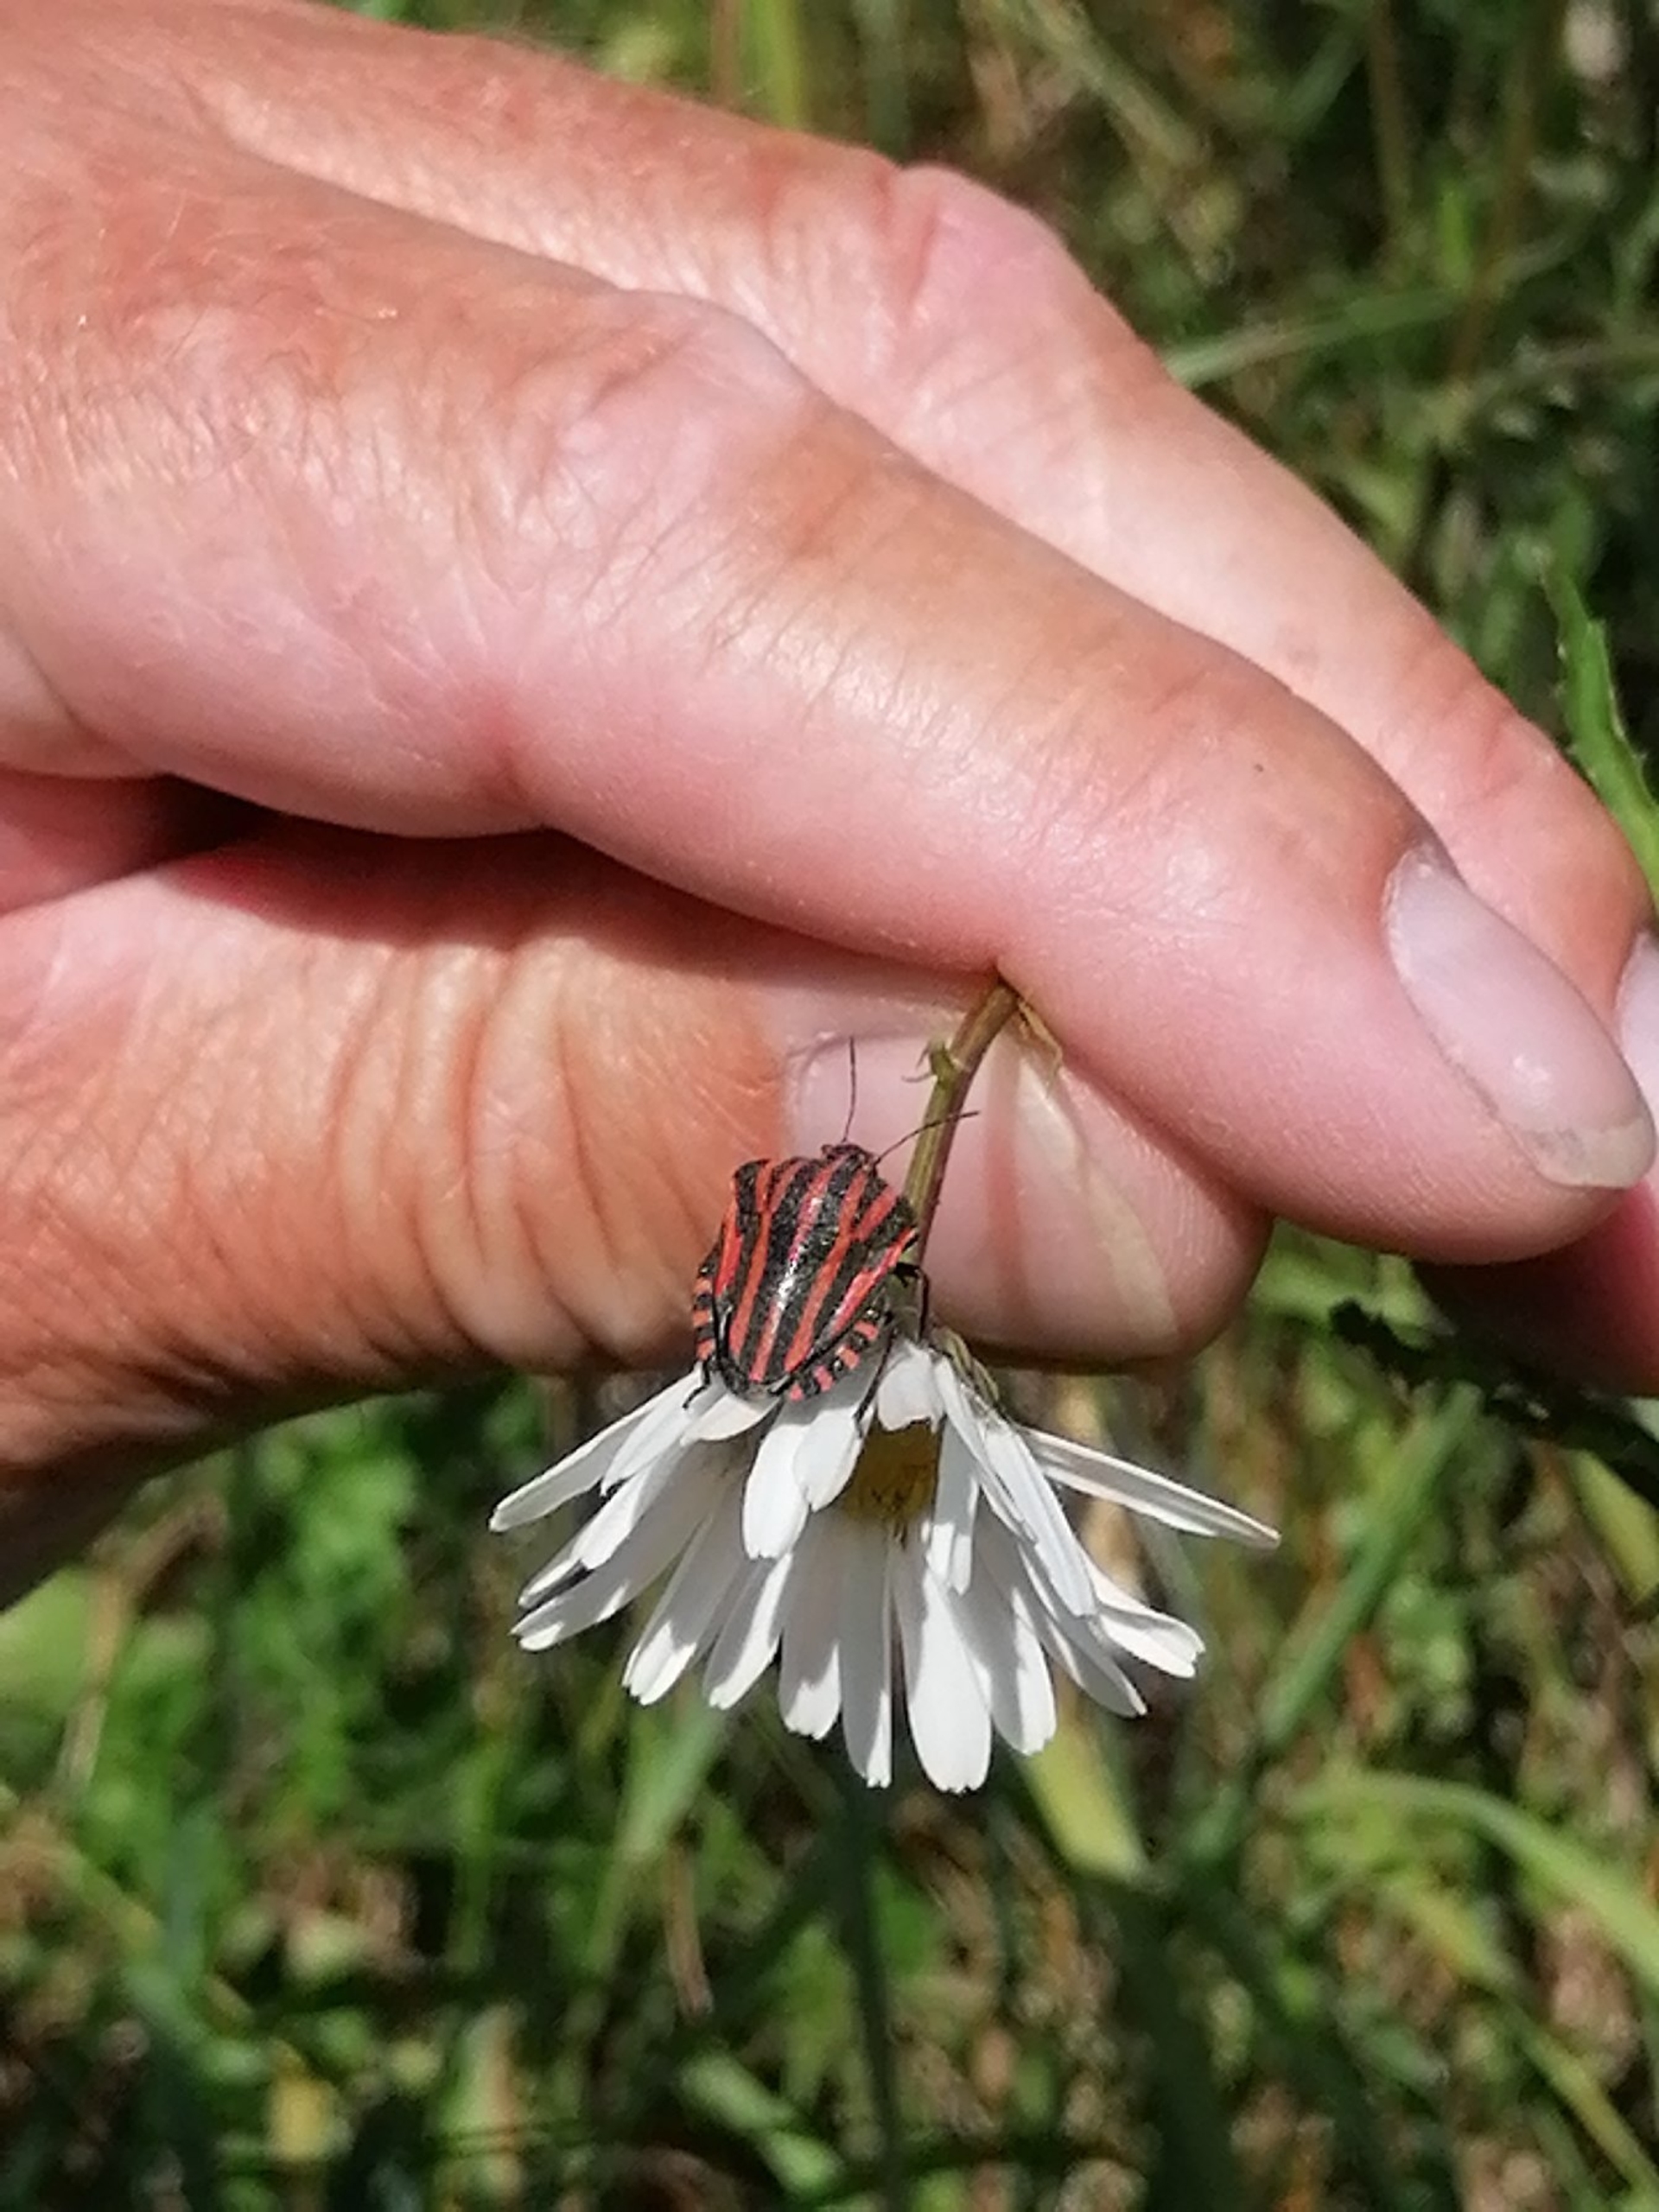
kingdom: Animalia
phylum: Arthropoda
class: Insecta
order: Hemiptera
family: Pentatomidae
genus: Graphosoma
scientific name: Graphosoma italicum
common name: Stribetæge
